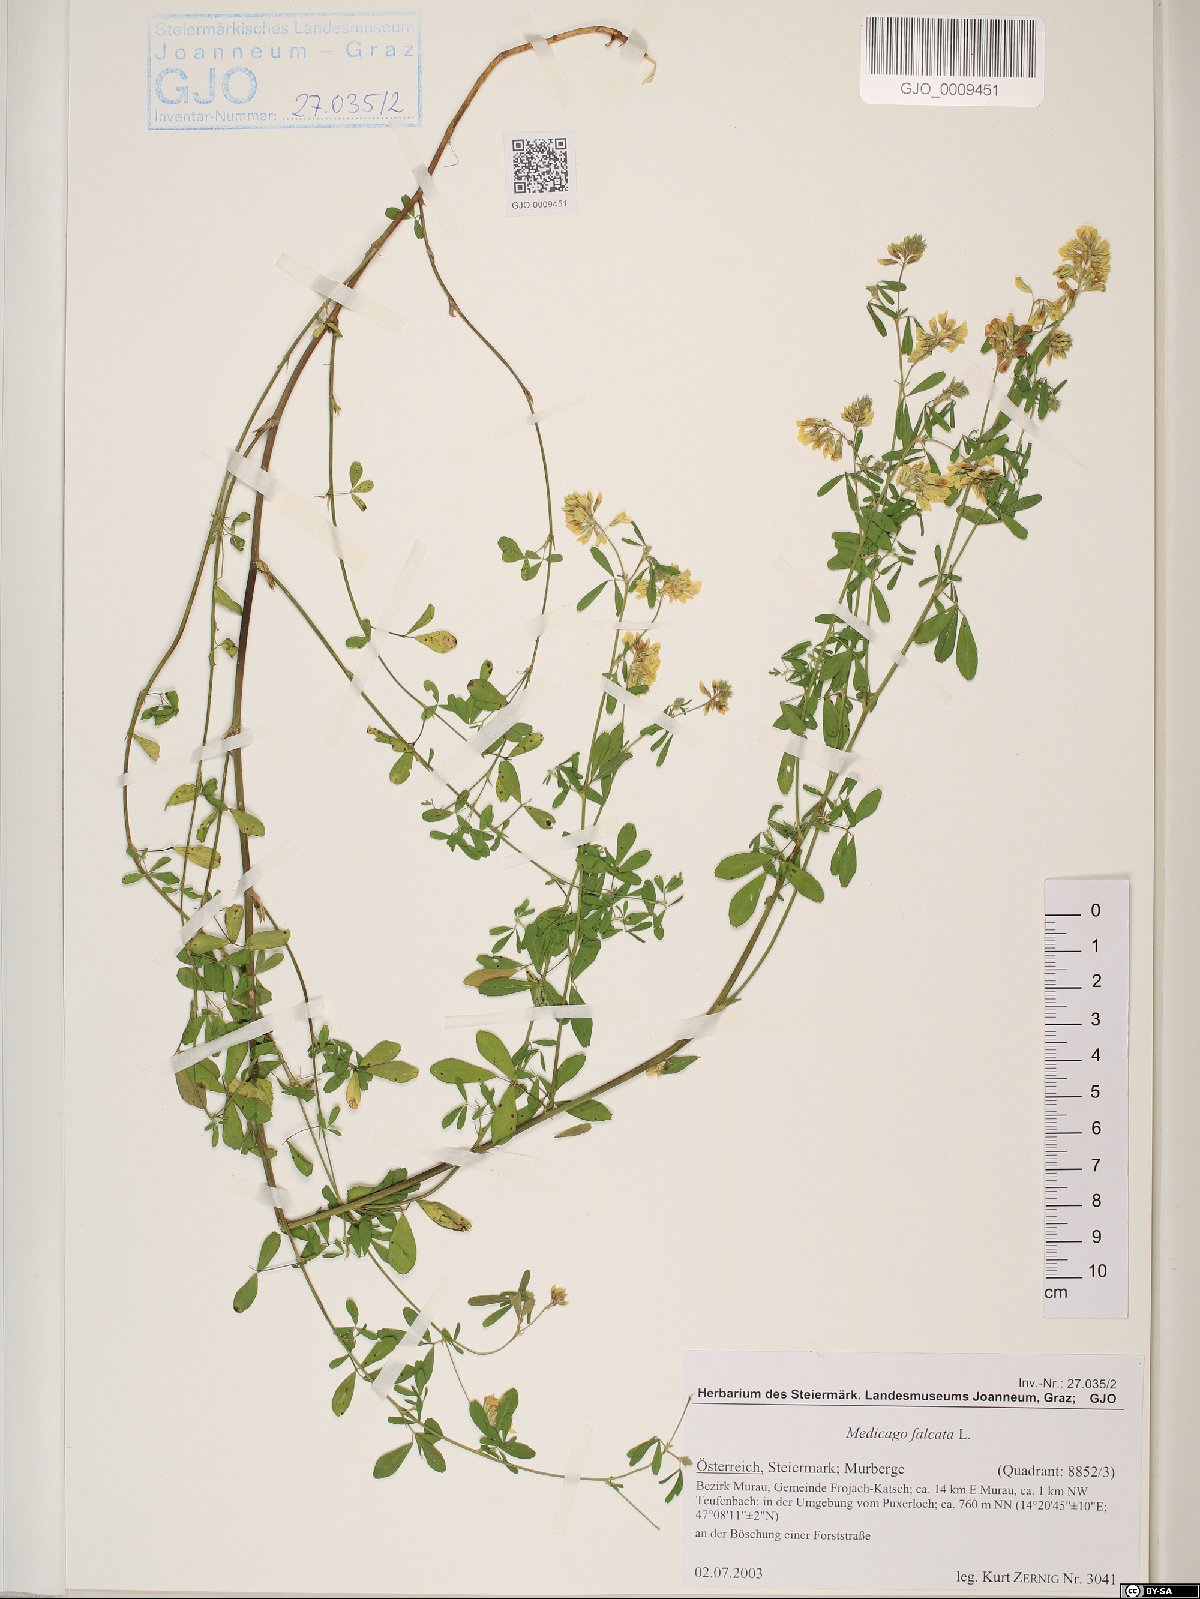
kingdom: Plantae
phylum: Tracheophyta
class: Magnoliopsida
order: Fabales
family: Fabaceae
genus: Medicago
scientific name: Medicago falcata
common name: Sickle medick
